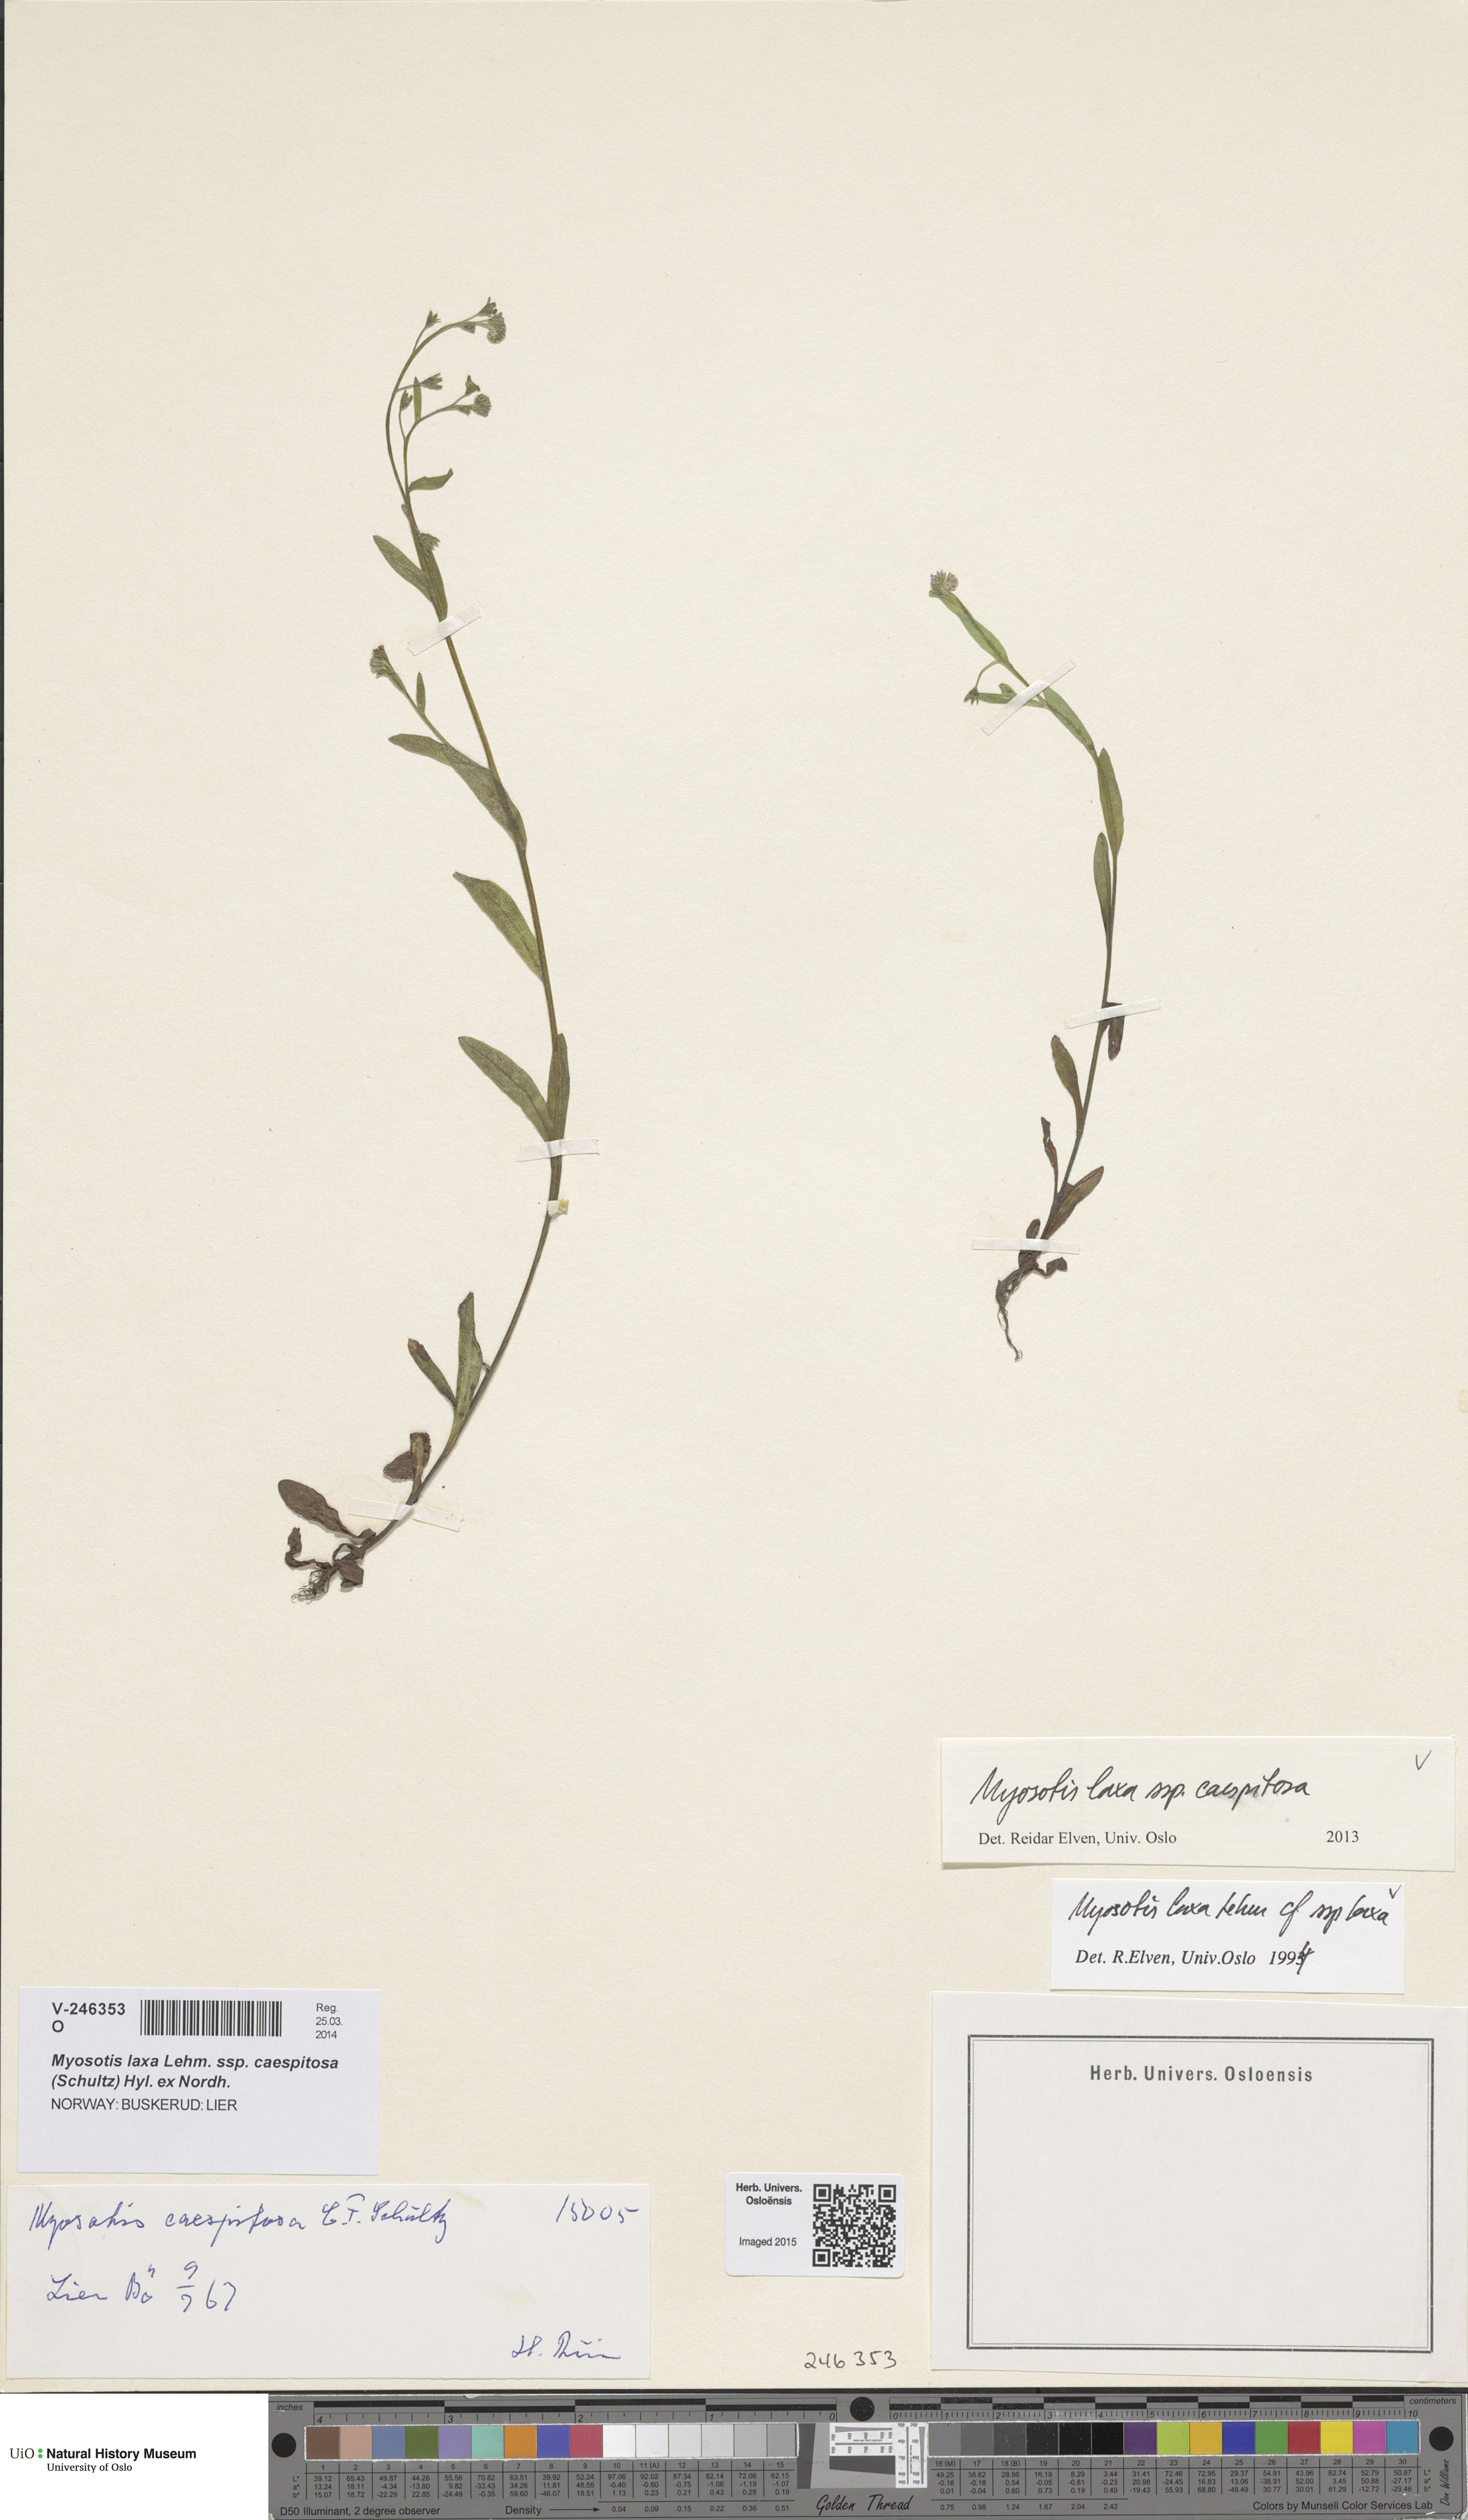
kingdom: Plantae
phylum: Tracheophyta
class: Magnoliopsida
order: Boraginales
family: Boraginaceae
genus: Myosotis
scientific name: Myosotis laxa
